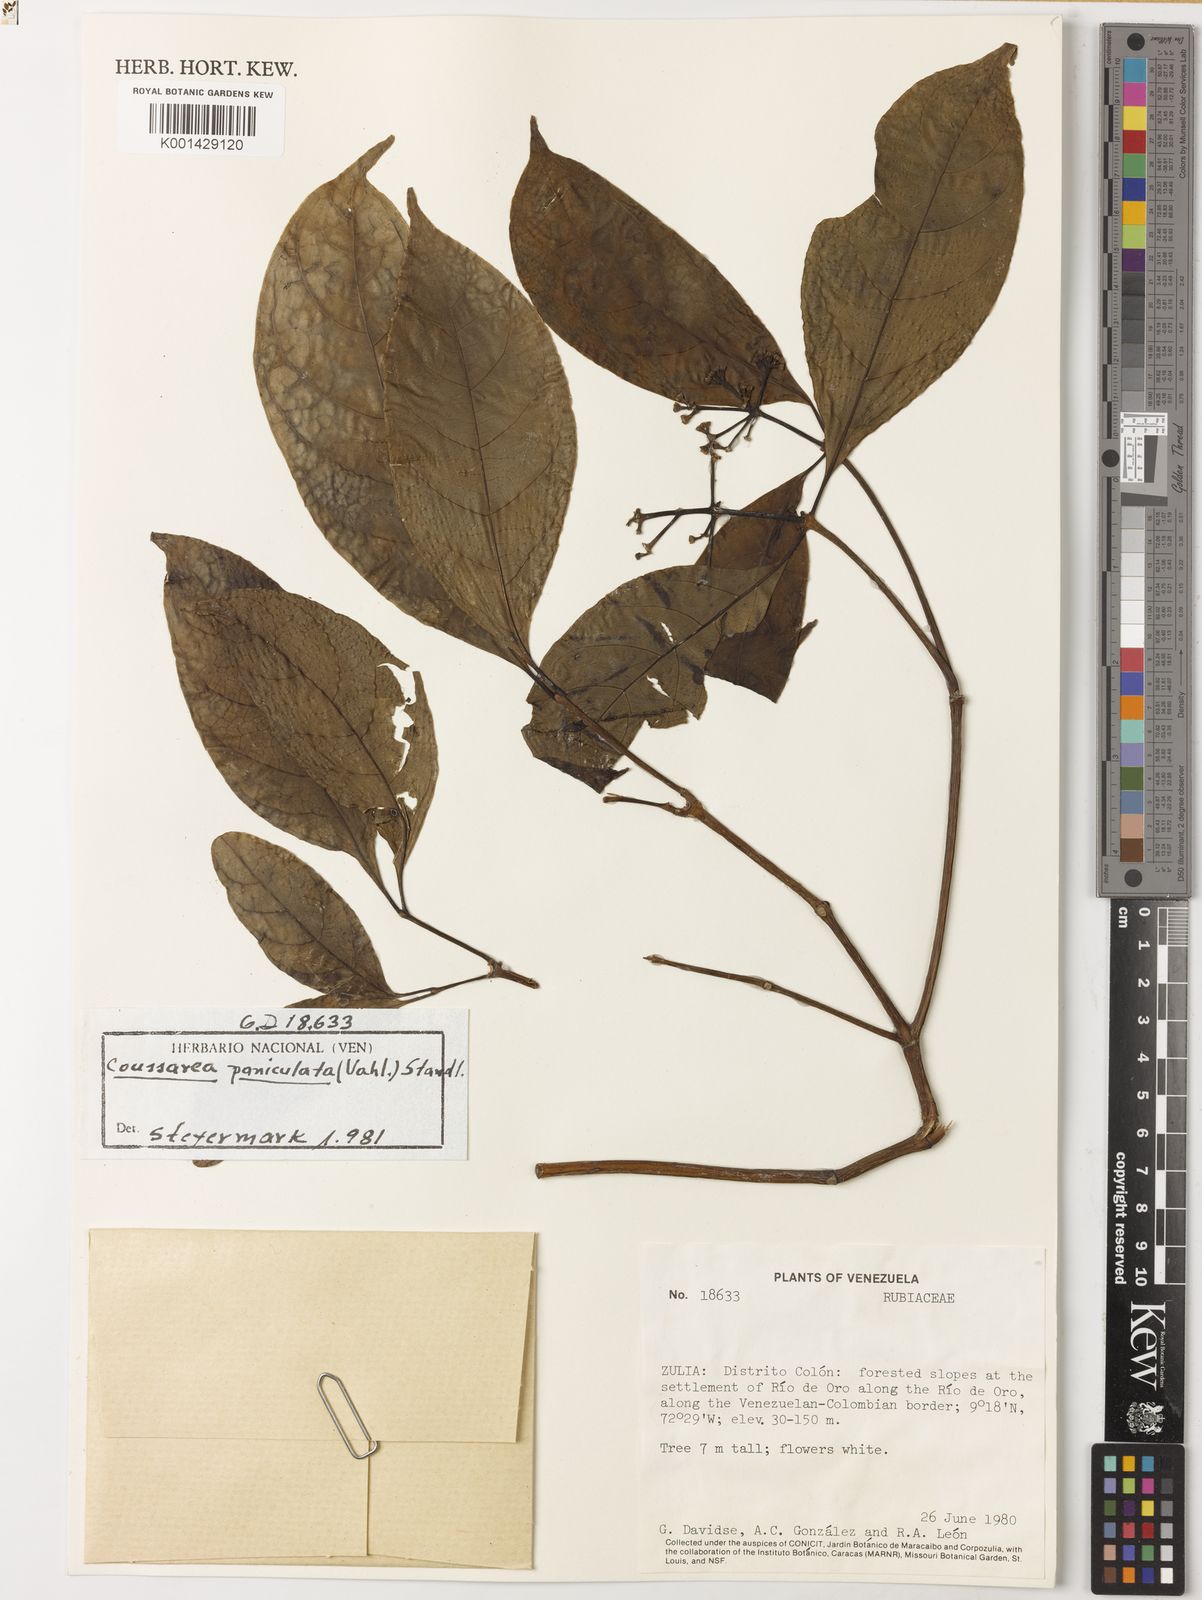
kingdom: Plantae
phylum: Tracheophyta
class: Magnoliopsida
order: Gentianales
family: Rubiaceae
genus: Coussarea
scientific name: Coussarea paniculata
